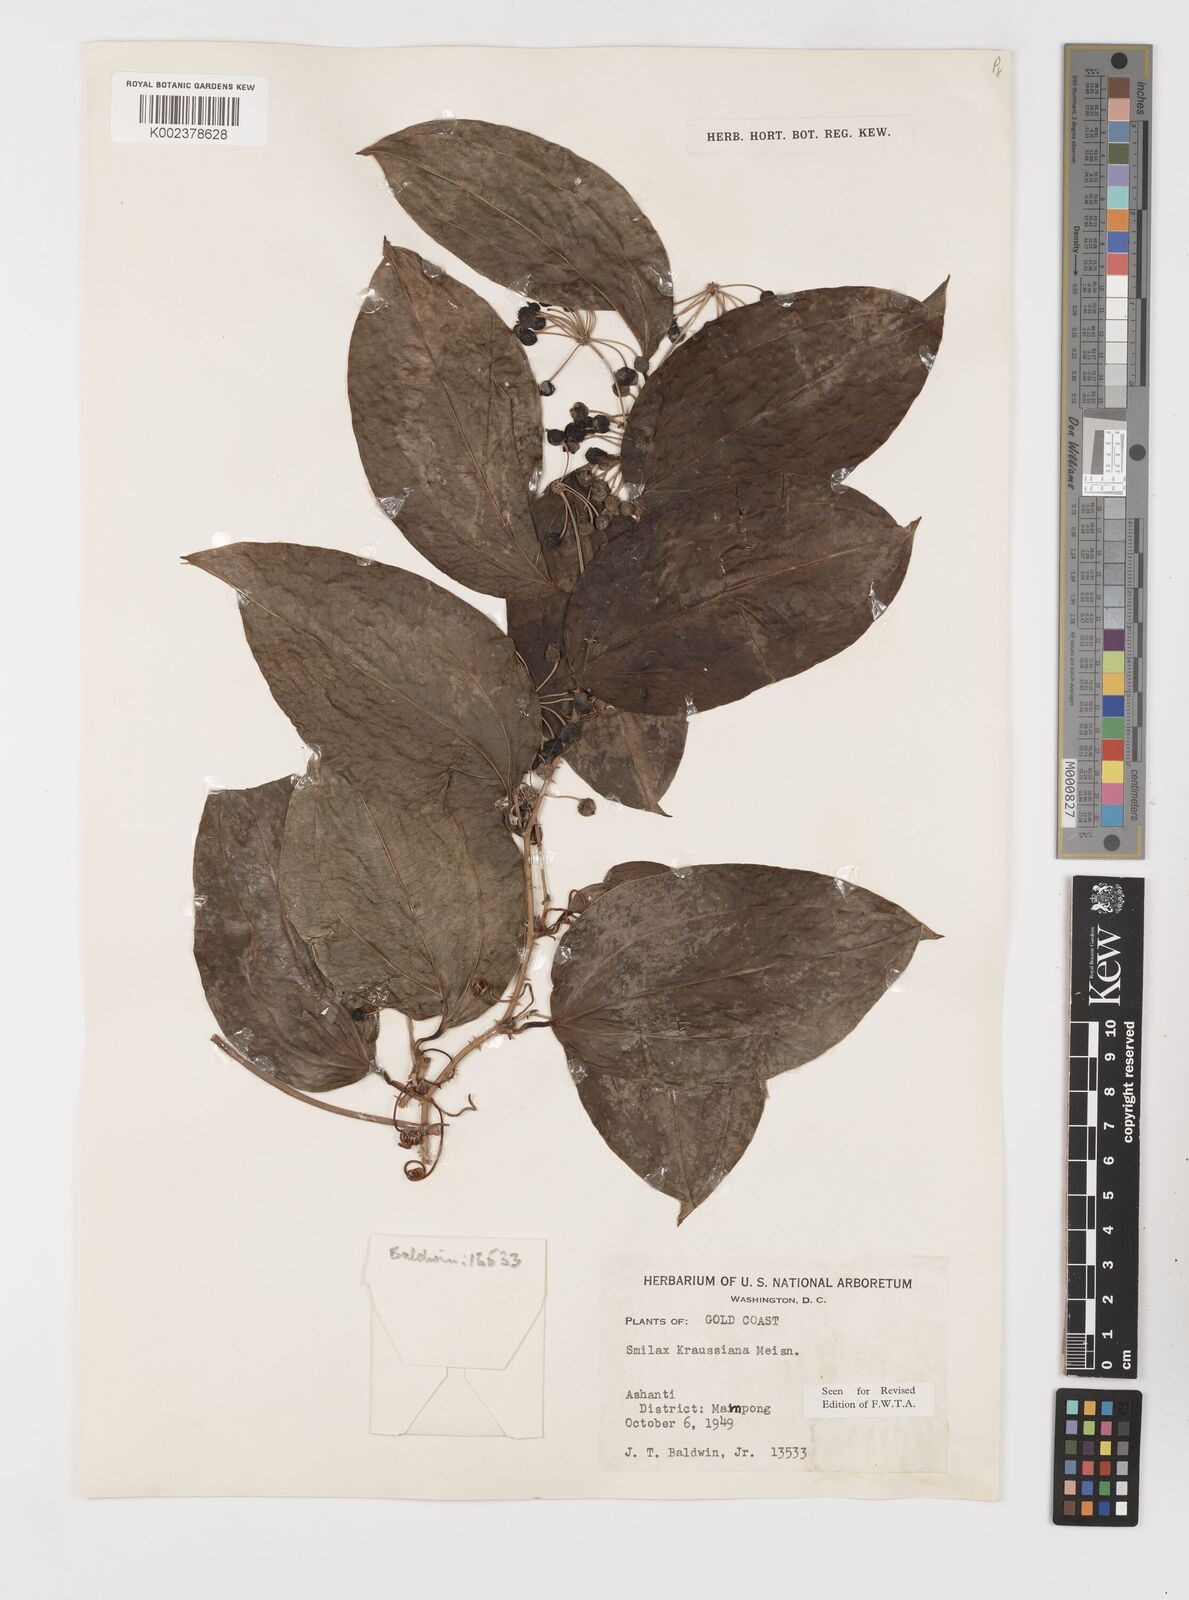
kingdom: Plantae
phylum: Tracheophyta
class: Liliopsida
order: Liliales
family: Smilacaceae
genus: Smilax
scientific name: Smilax anceps
